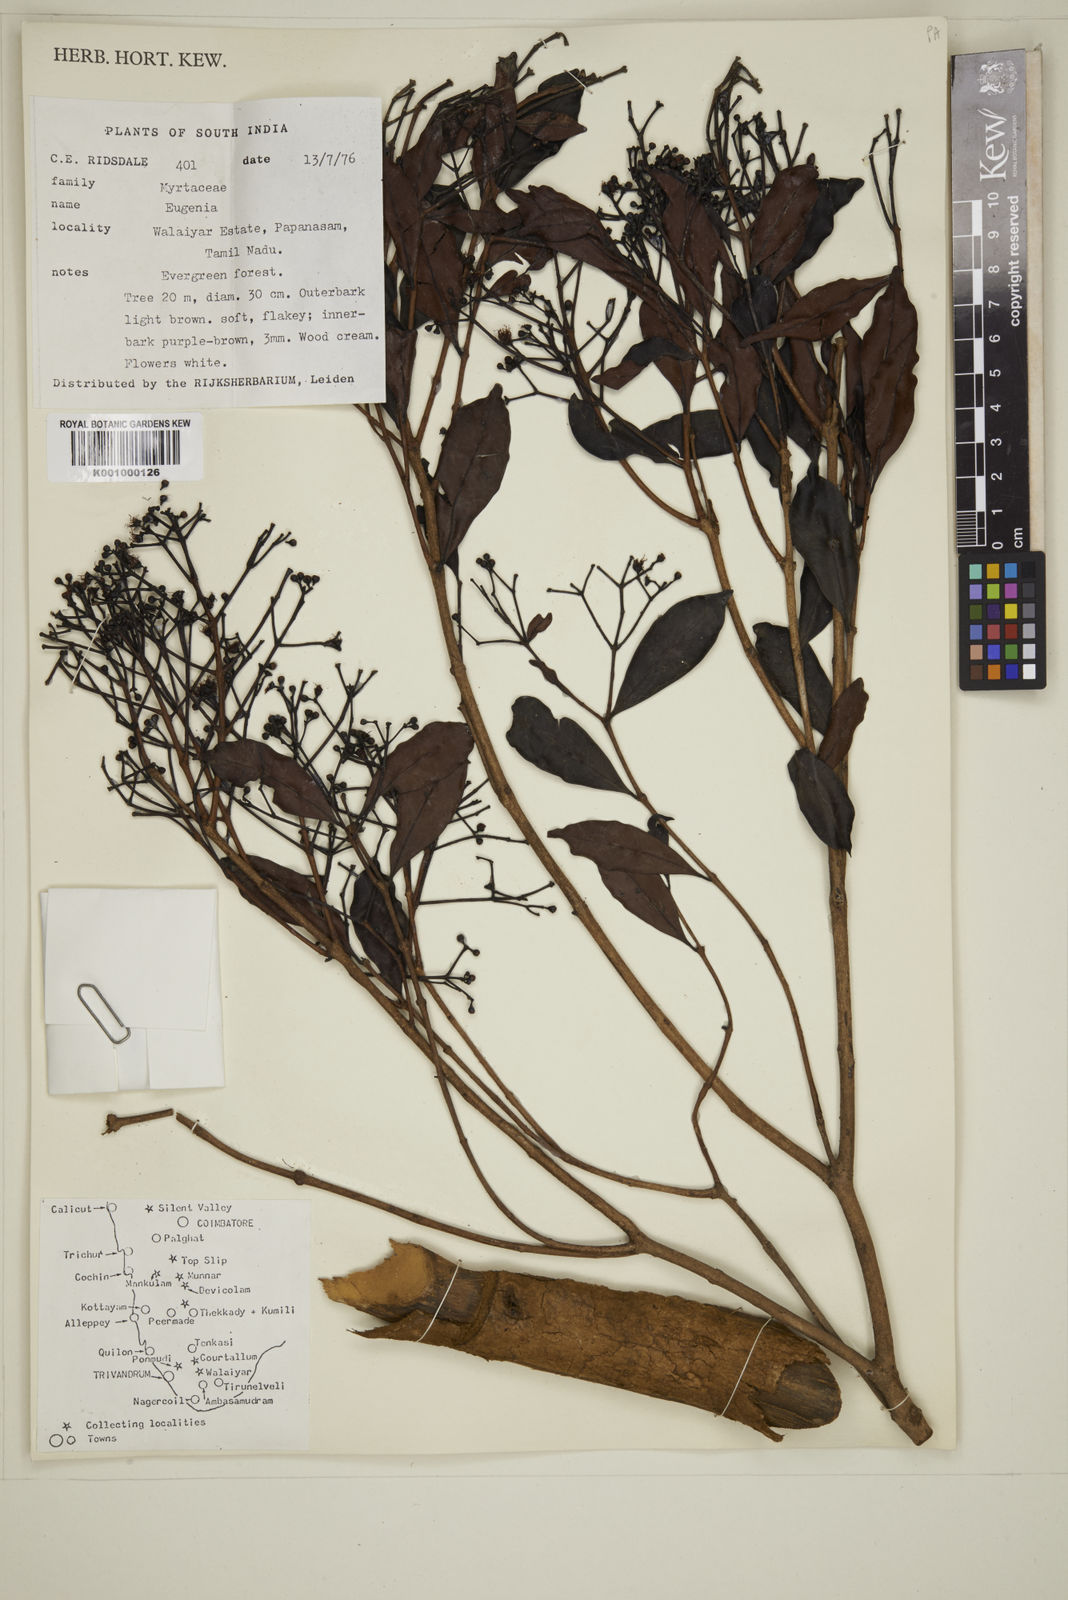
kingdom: Plantae
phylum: Tracheophyta
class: Magnoliopsida
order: Myrtales
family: Myrtaceae
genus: Eugenia
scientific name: Eugenia
